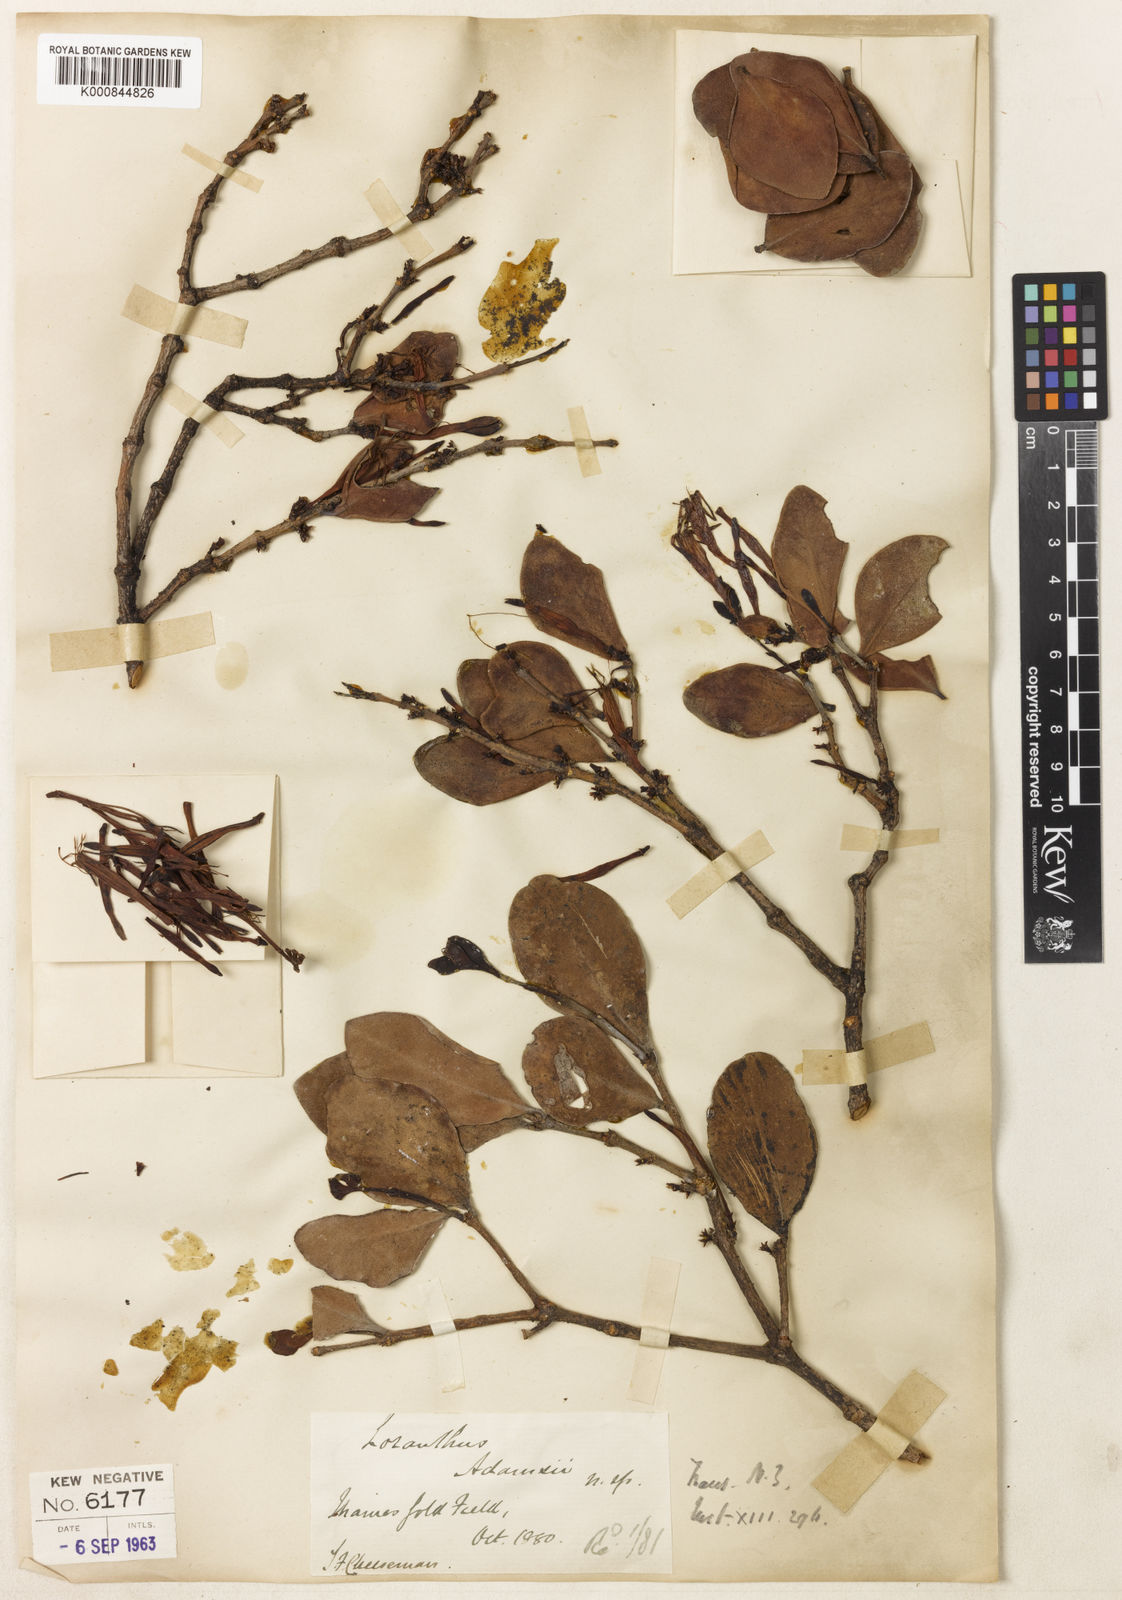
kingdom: Plantae
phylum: Tracheophyta
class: Magnoliopsida
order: Santalales
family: Loranthaceae
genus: Trilepidea
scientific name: Trilepidea adamsii
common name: Adams mistletoe
